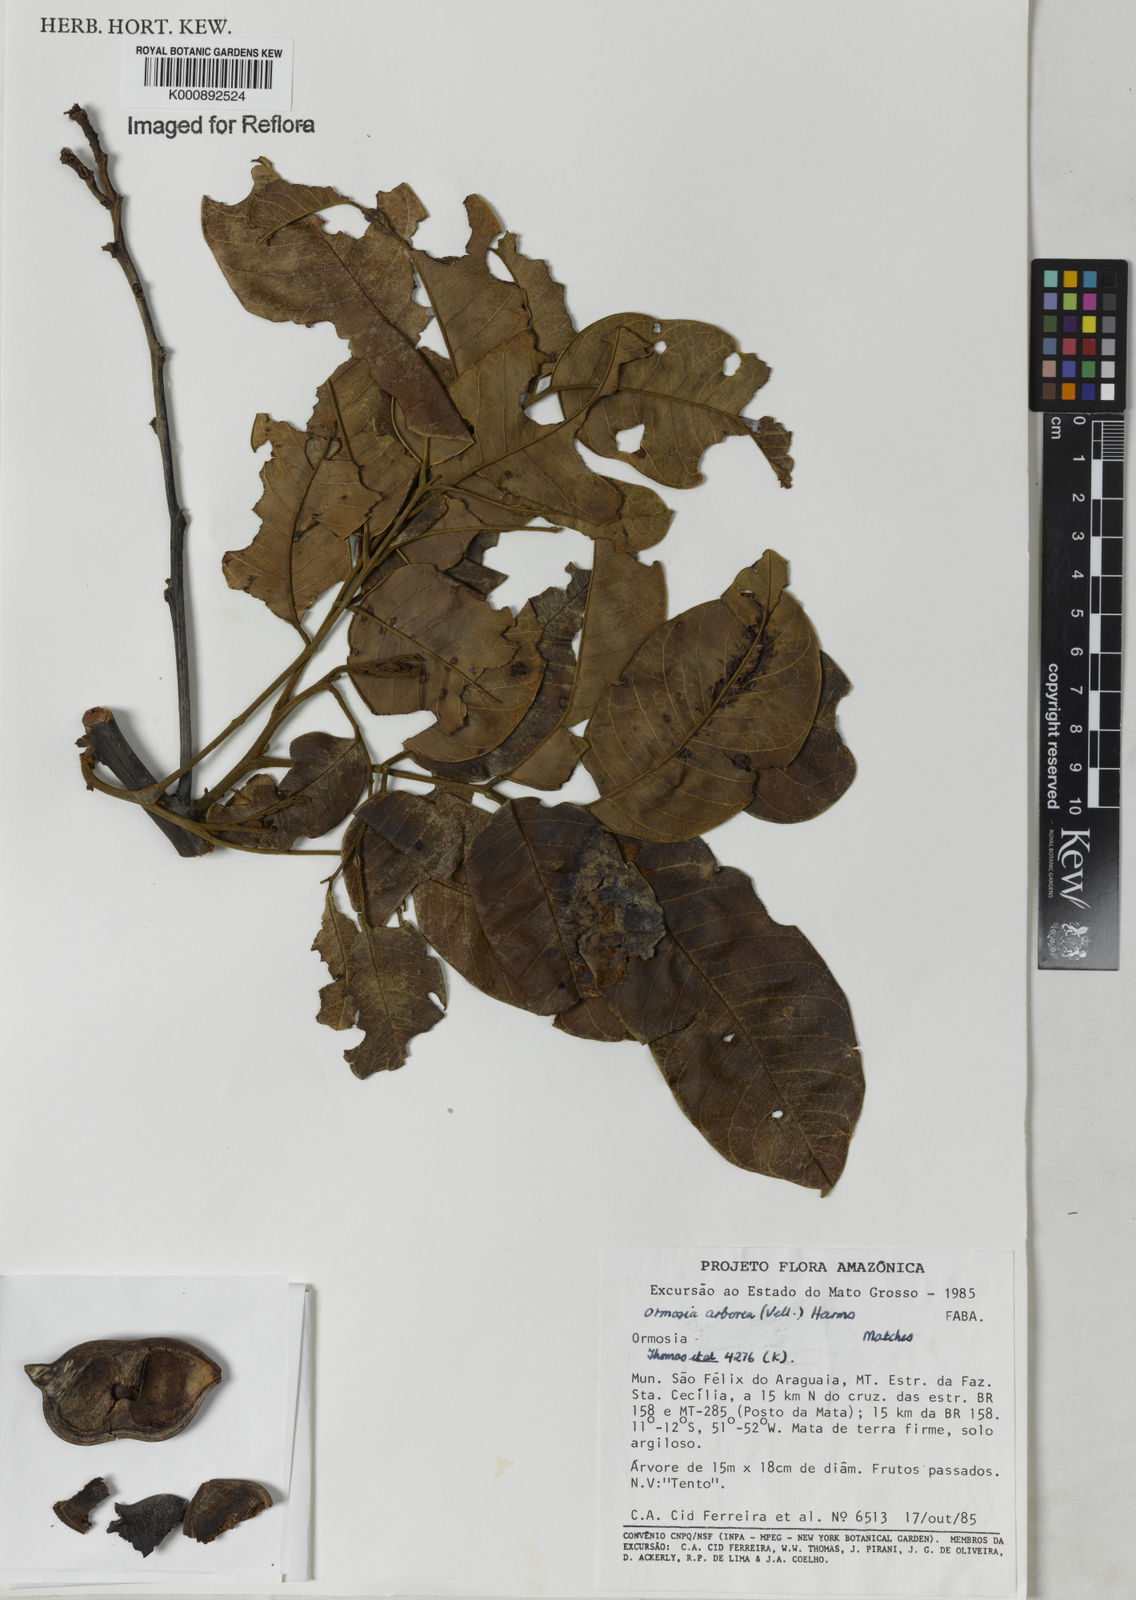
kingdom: Plantae
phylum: Tracheophyta
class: Magnoliopsida
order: Fabales
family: Fabaceae
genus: Ormosia
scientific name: Ormosia arborea
